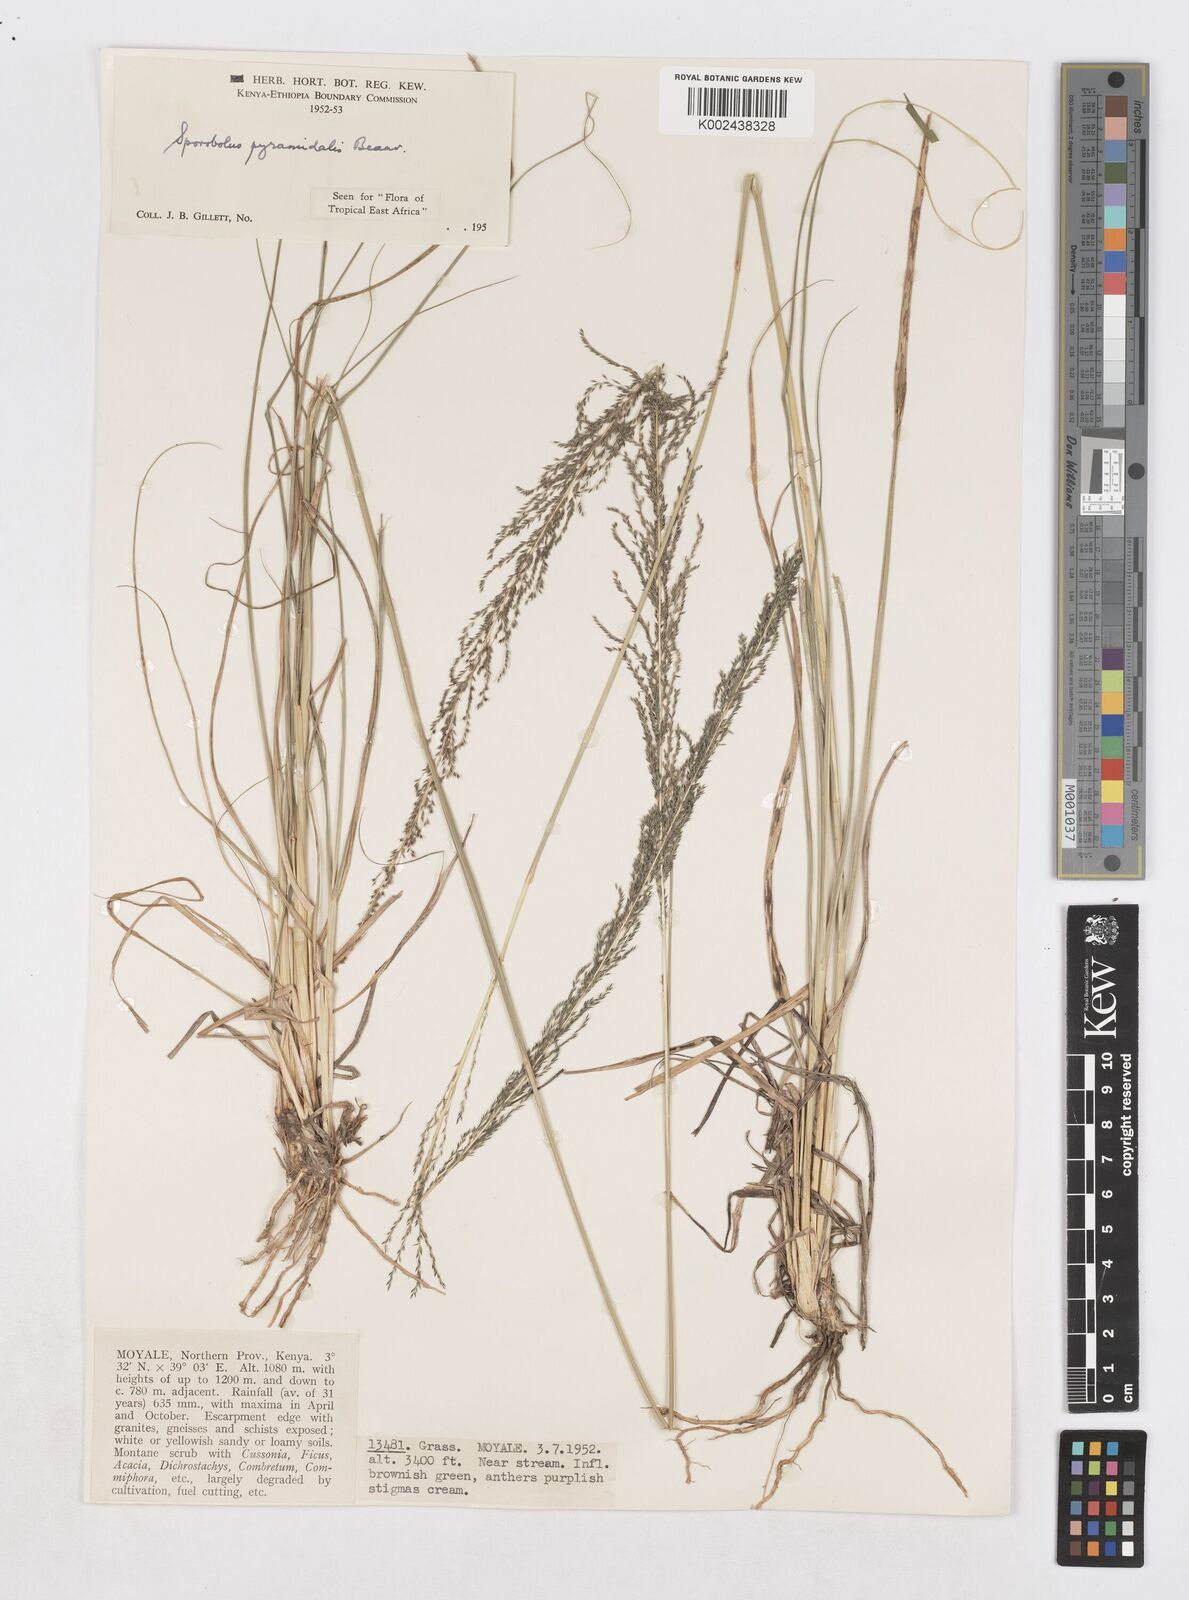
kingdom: Plantae
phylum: Tracheophyta
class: Liliopsida
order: Poales
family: Poaceae
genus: Sporobolus
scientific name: Sporobolus pyramidalis
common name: West indian dropseed
